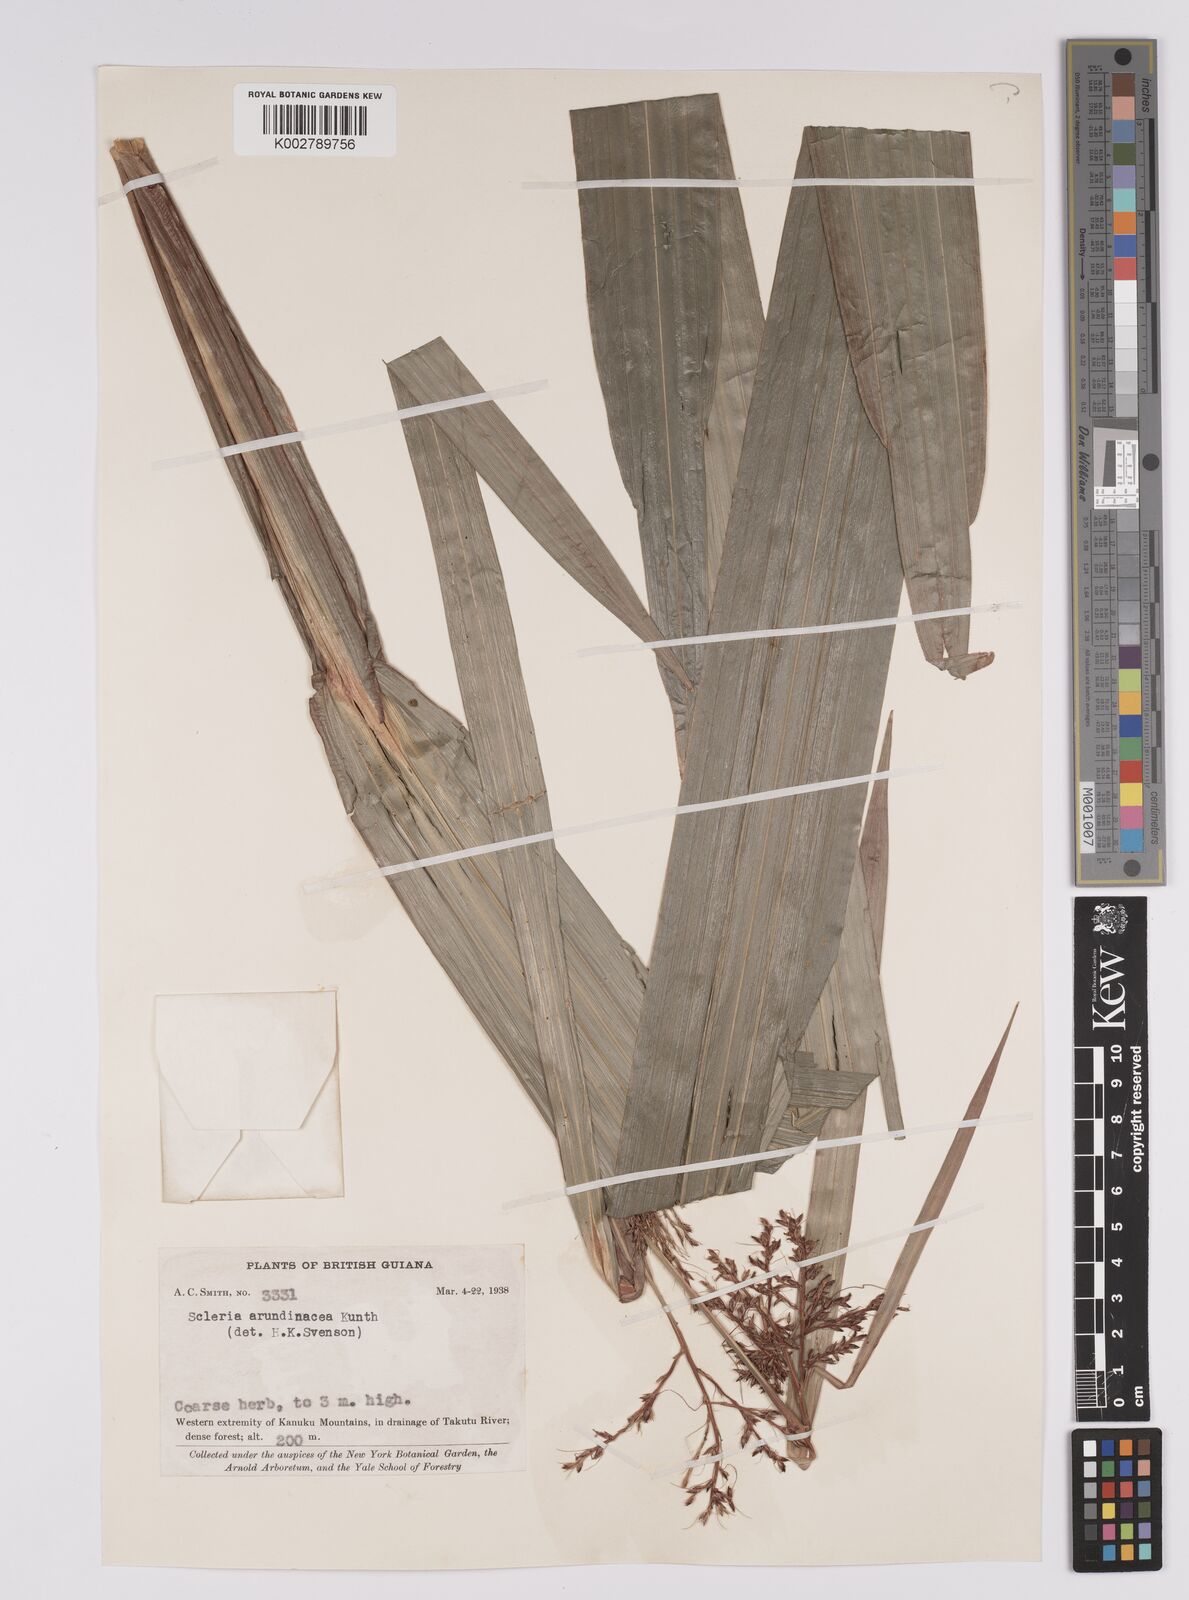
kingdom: Plantae
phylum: Tracheophyta
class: Liliopsida
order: Poales
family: Cyperaceae
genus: Scleria
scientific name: Scleria latifolia
